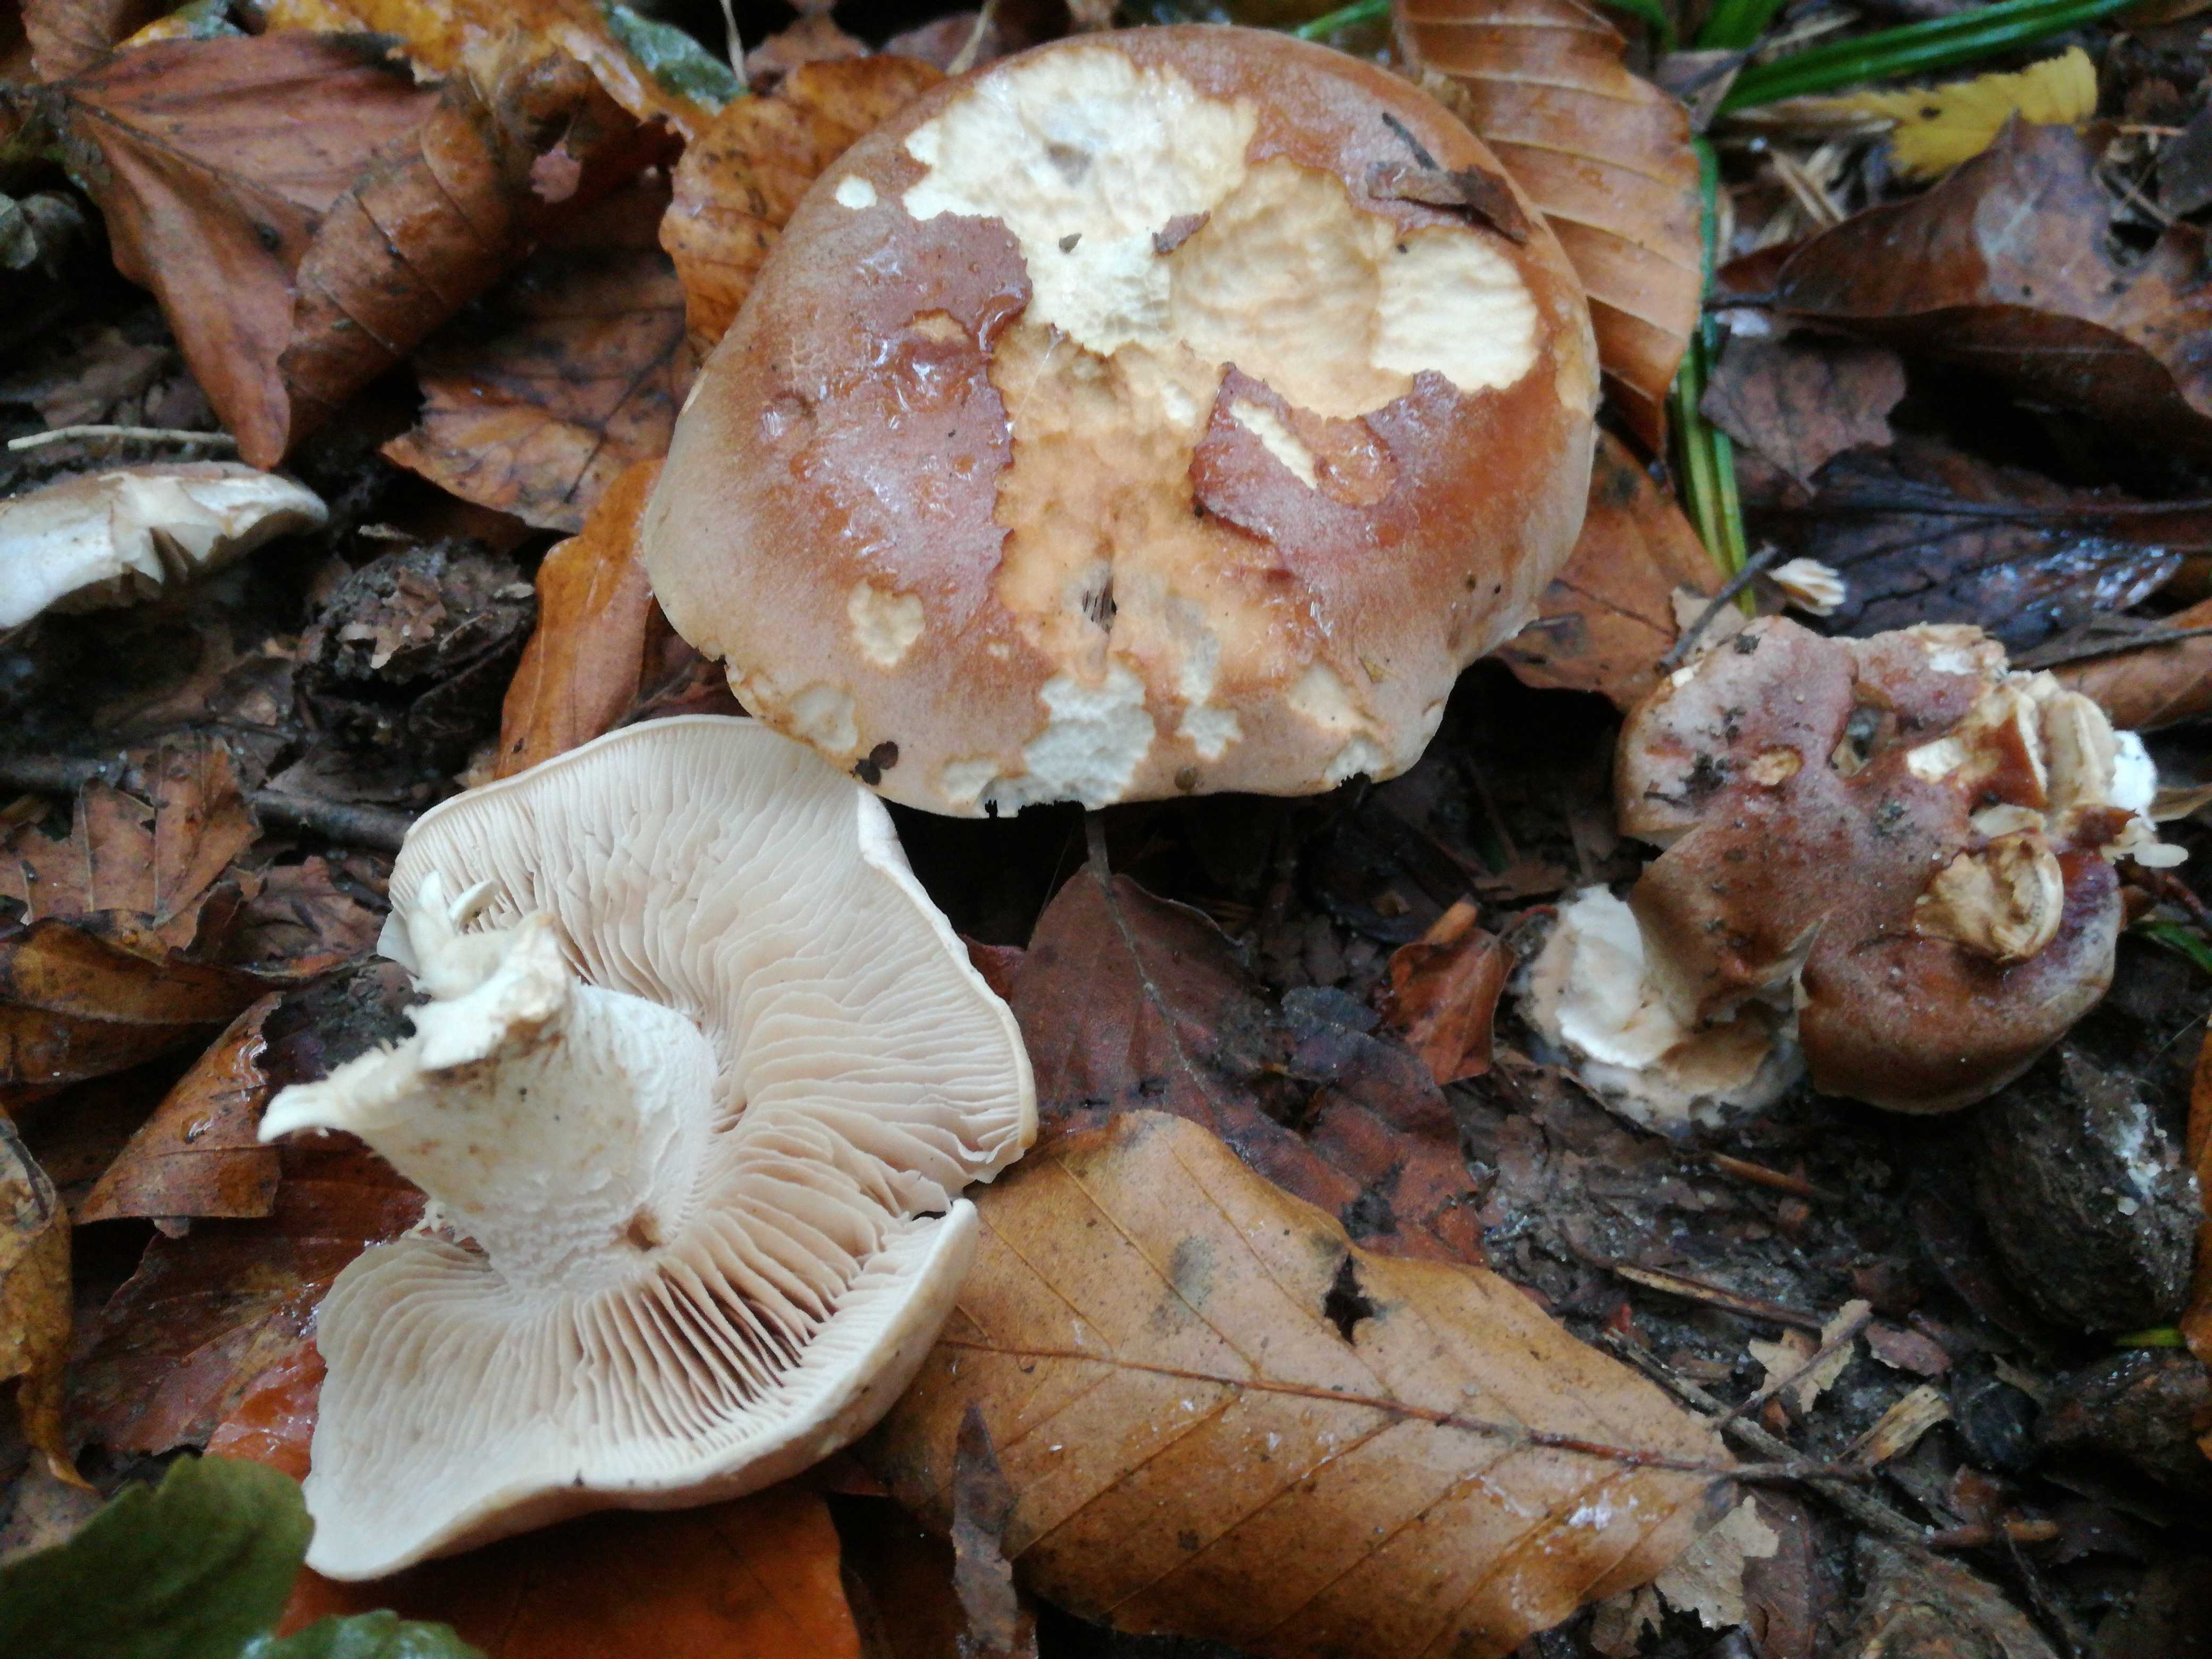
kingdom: Fungi
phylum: Basidiomycota
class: Agaricomycetes
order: Agaricales
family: Hymenogastraceae
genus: Hebeloma
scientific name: Hebeloma theobrominum
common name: rødbrun tåreblad
